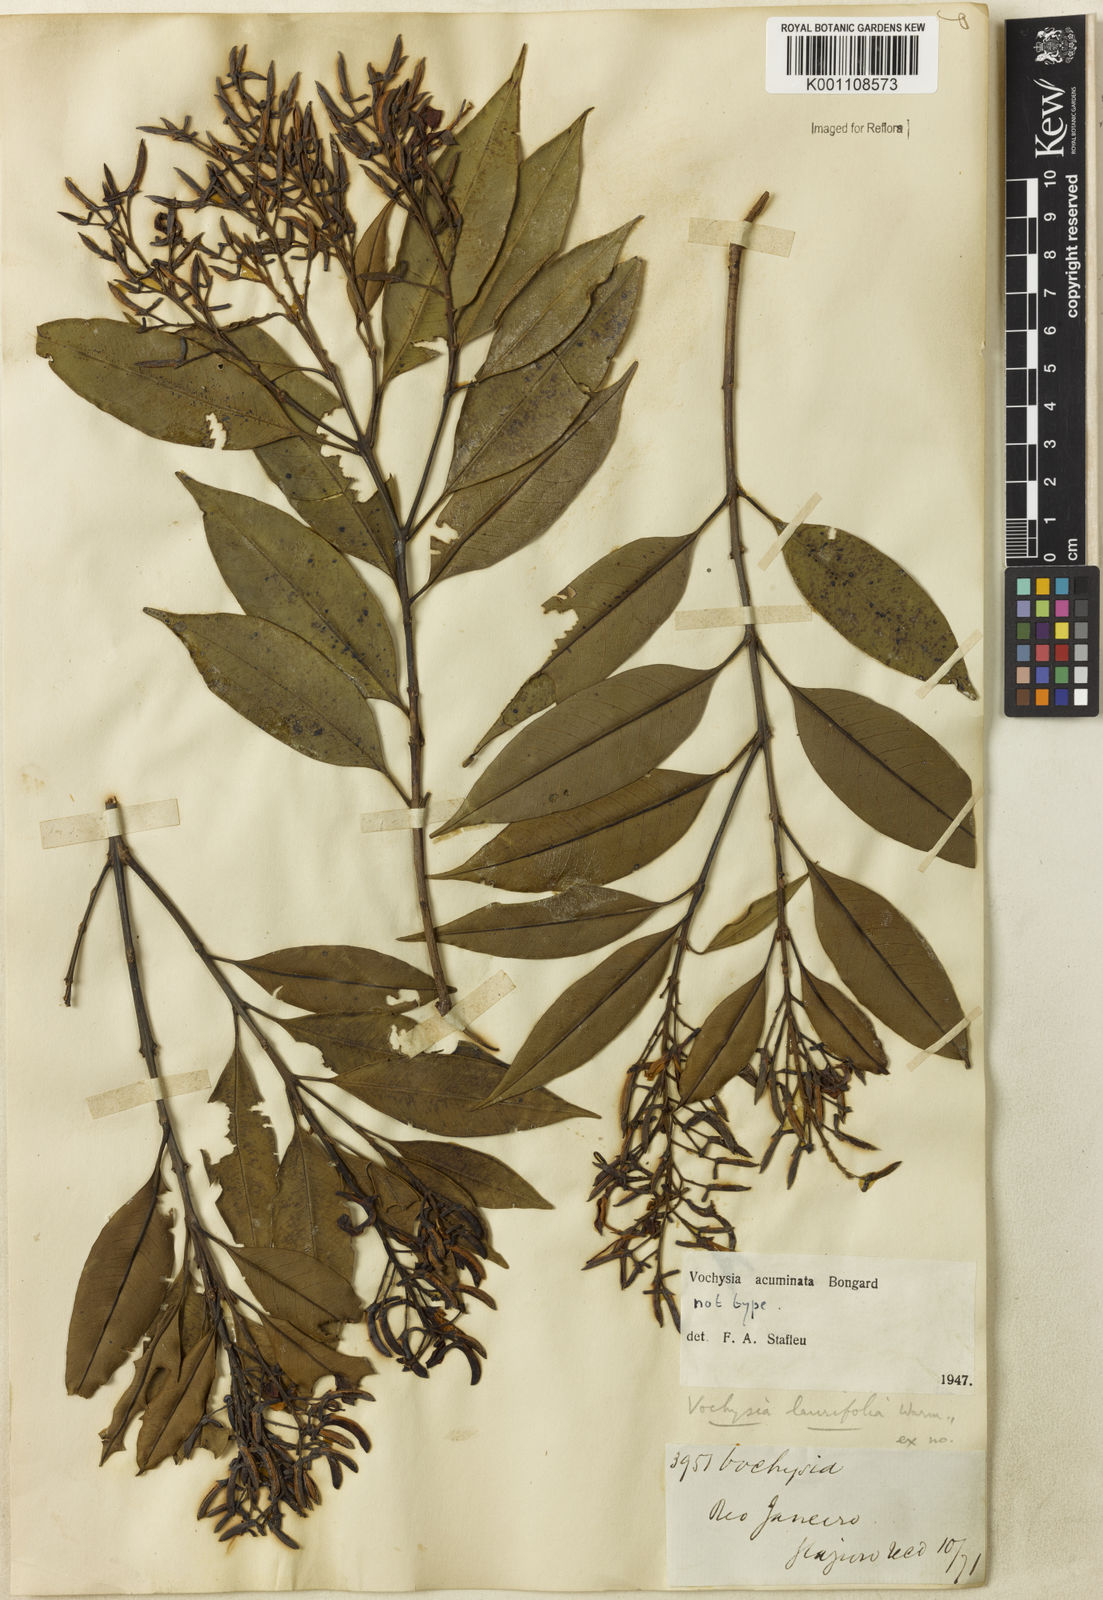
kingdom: Plantae
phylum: Tracheophyta
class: Magnoliopsida
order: Myrtales
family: Vochysiaceae
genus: Vochysia
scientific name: Vochysia laurifolia
